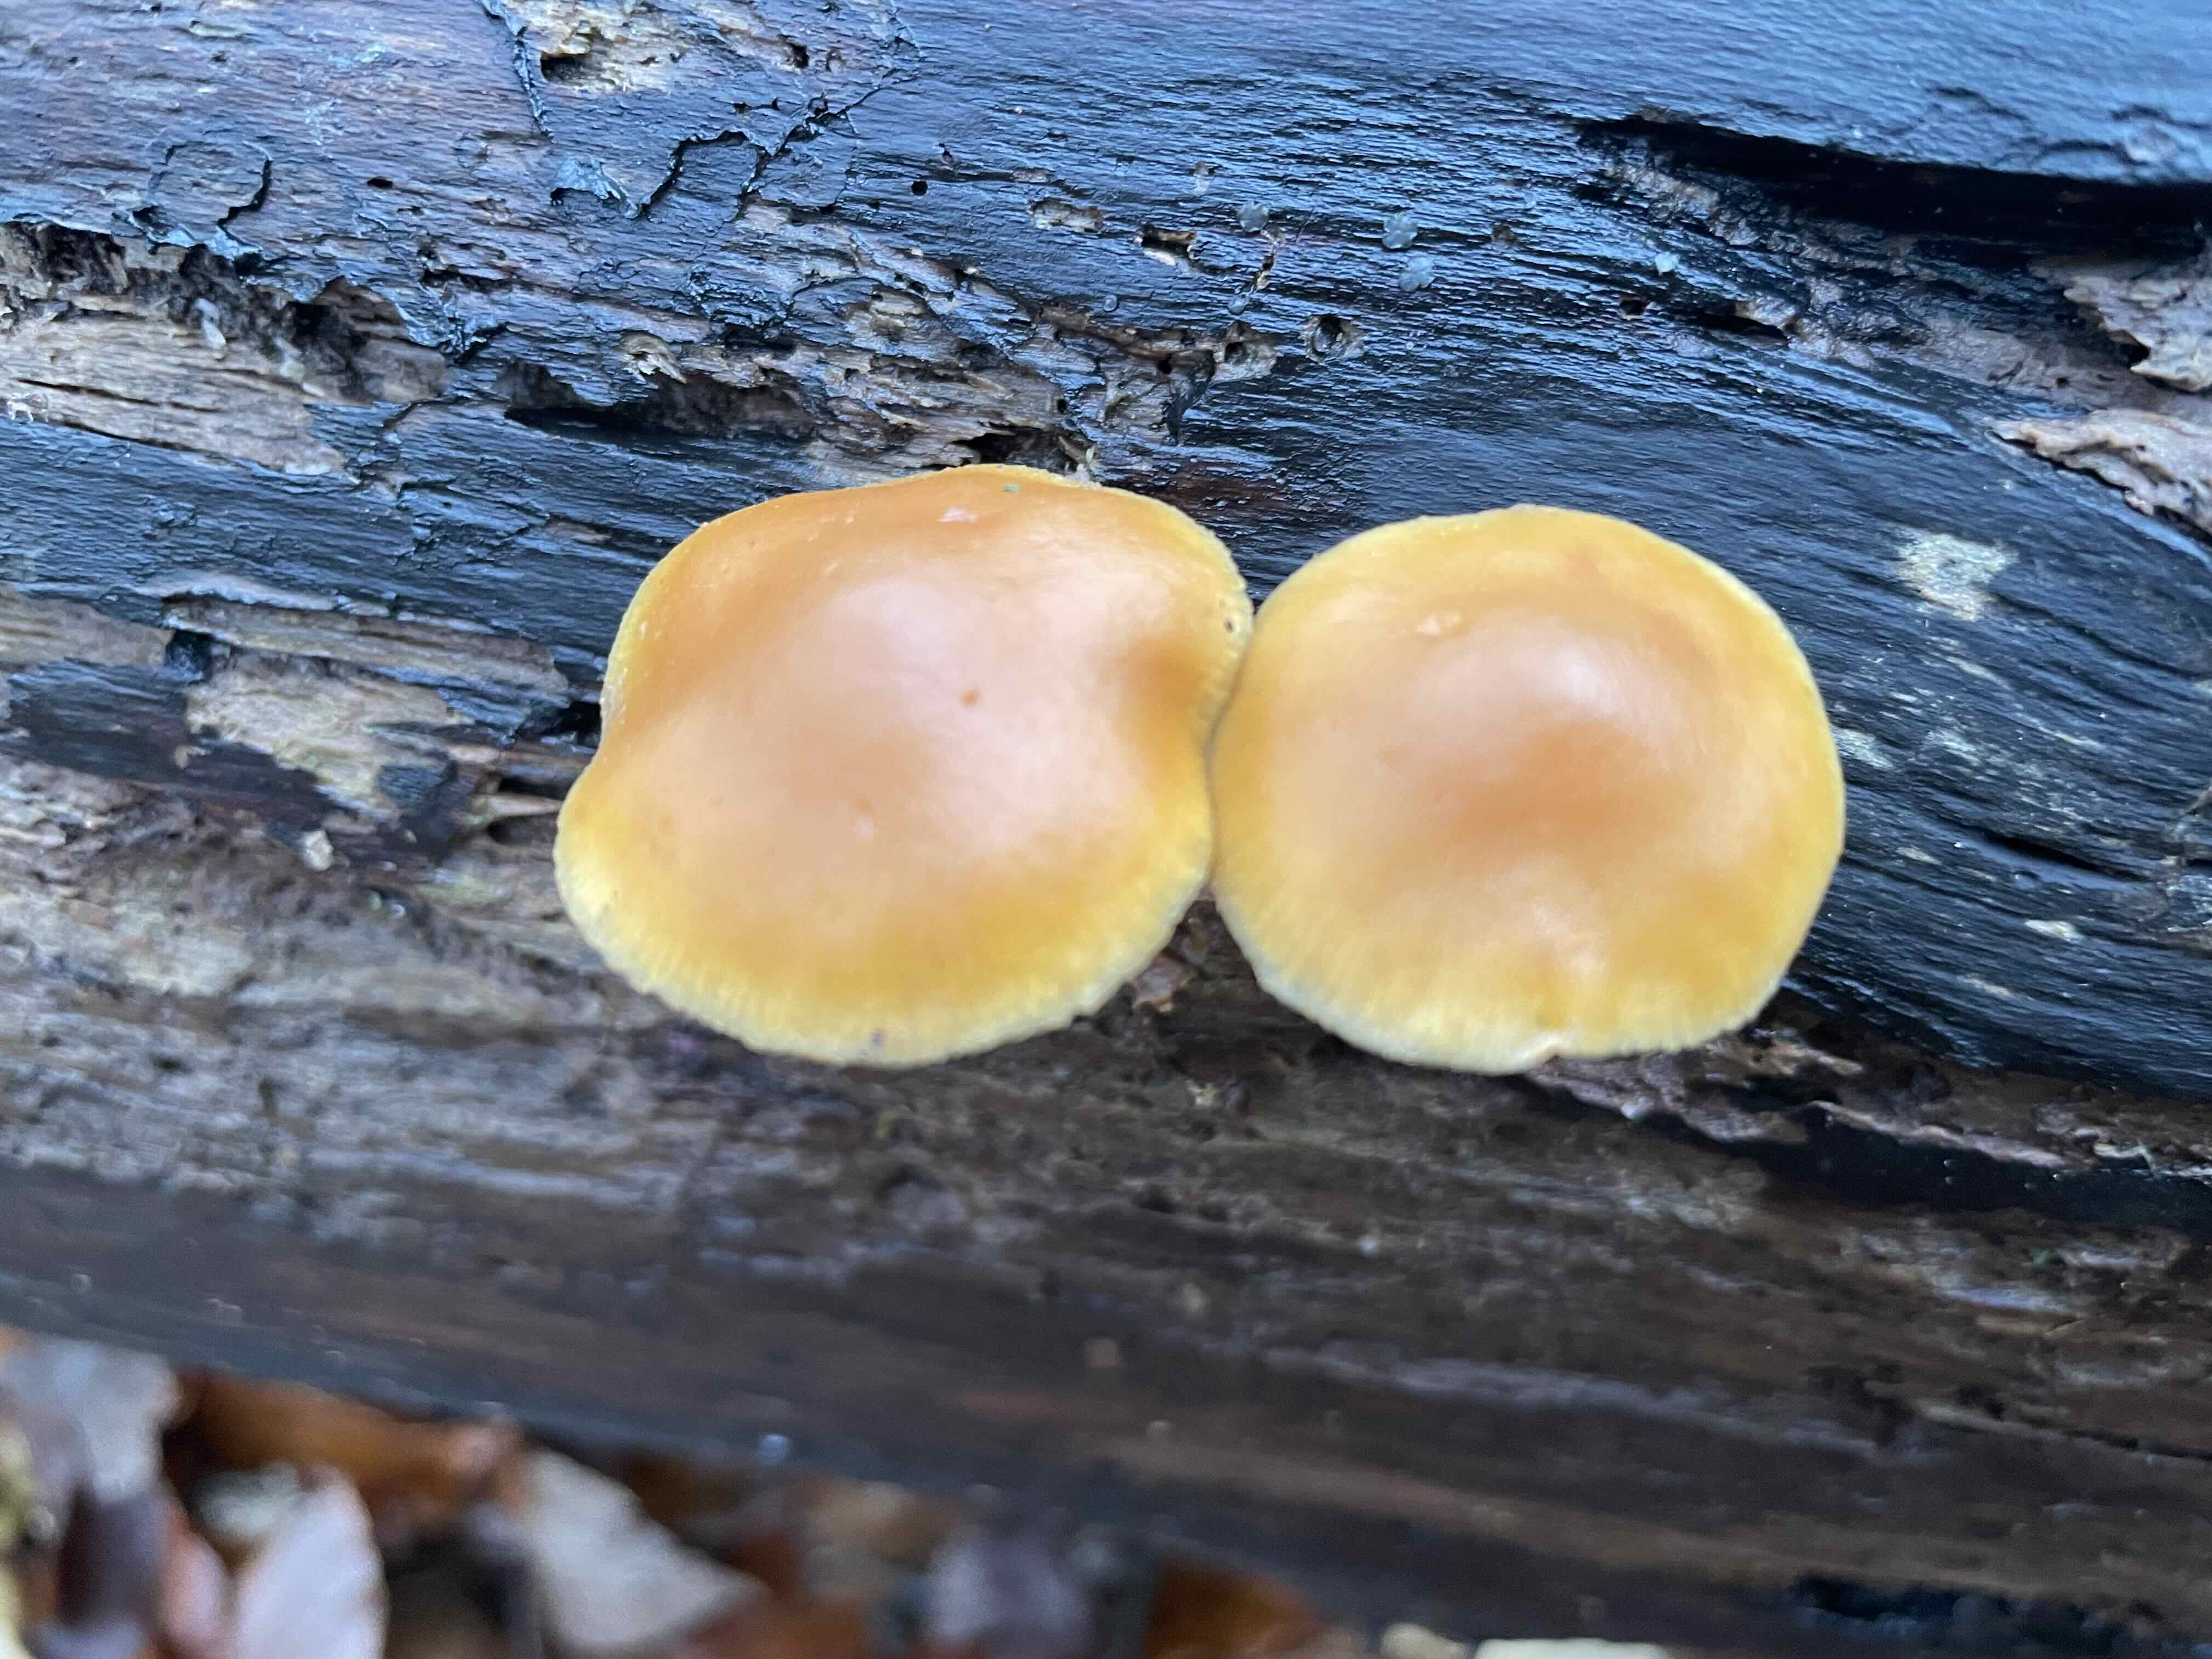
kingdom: Fungi
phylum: Basidiomycota
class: Agaricomycetes
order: Agaricales
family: Hymenogastraceae
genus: Galerina
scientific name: Galerina marginata
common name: randbæltet hjelmhat
